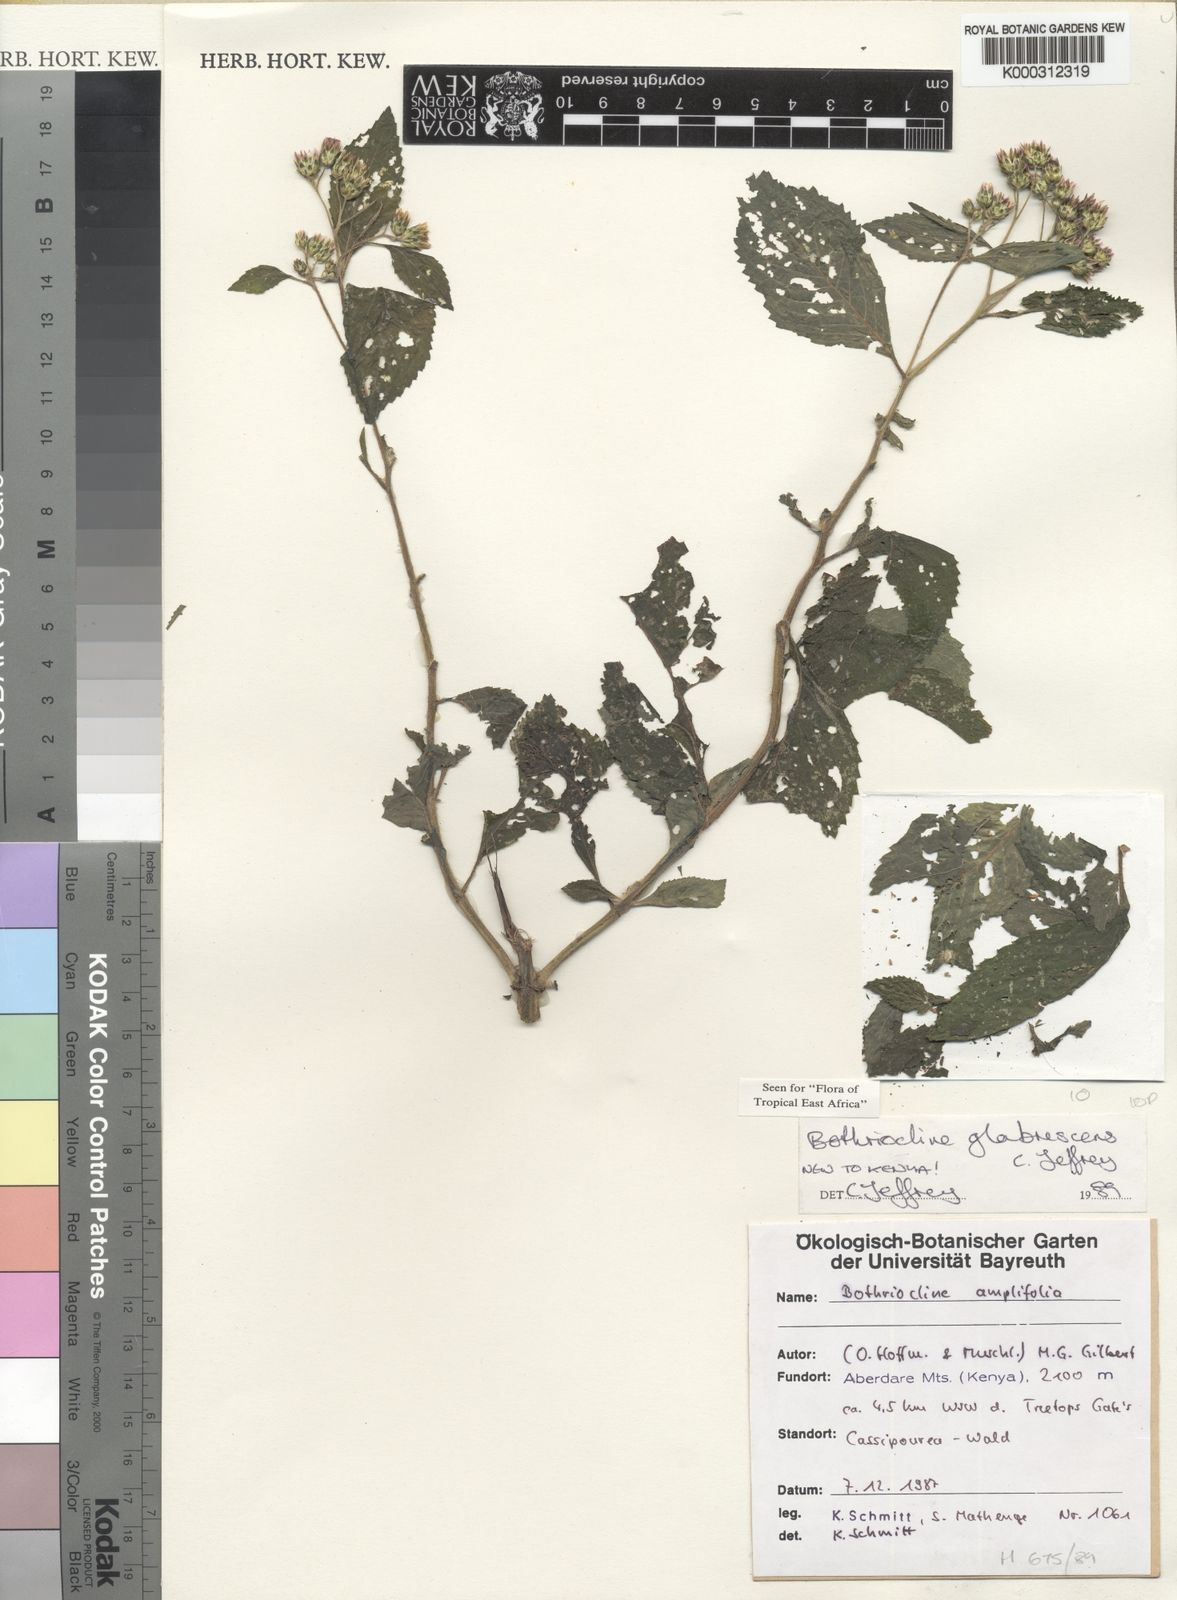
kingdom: Plantae
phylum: Tracheophyta
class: Magnoliopsida
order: Asterales
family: Asteraceae
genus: Bothriocline
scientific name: Bothriocline glabrescens
